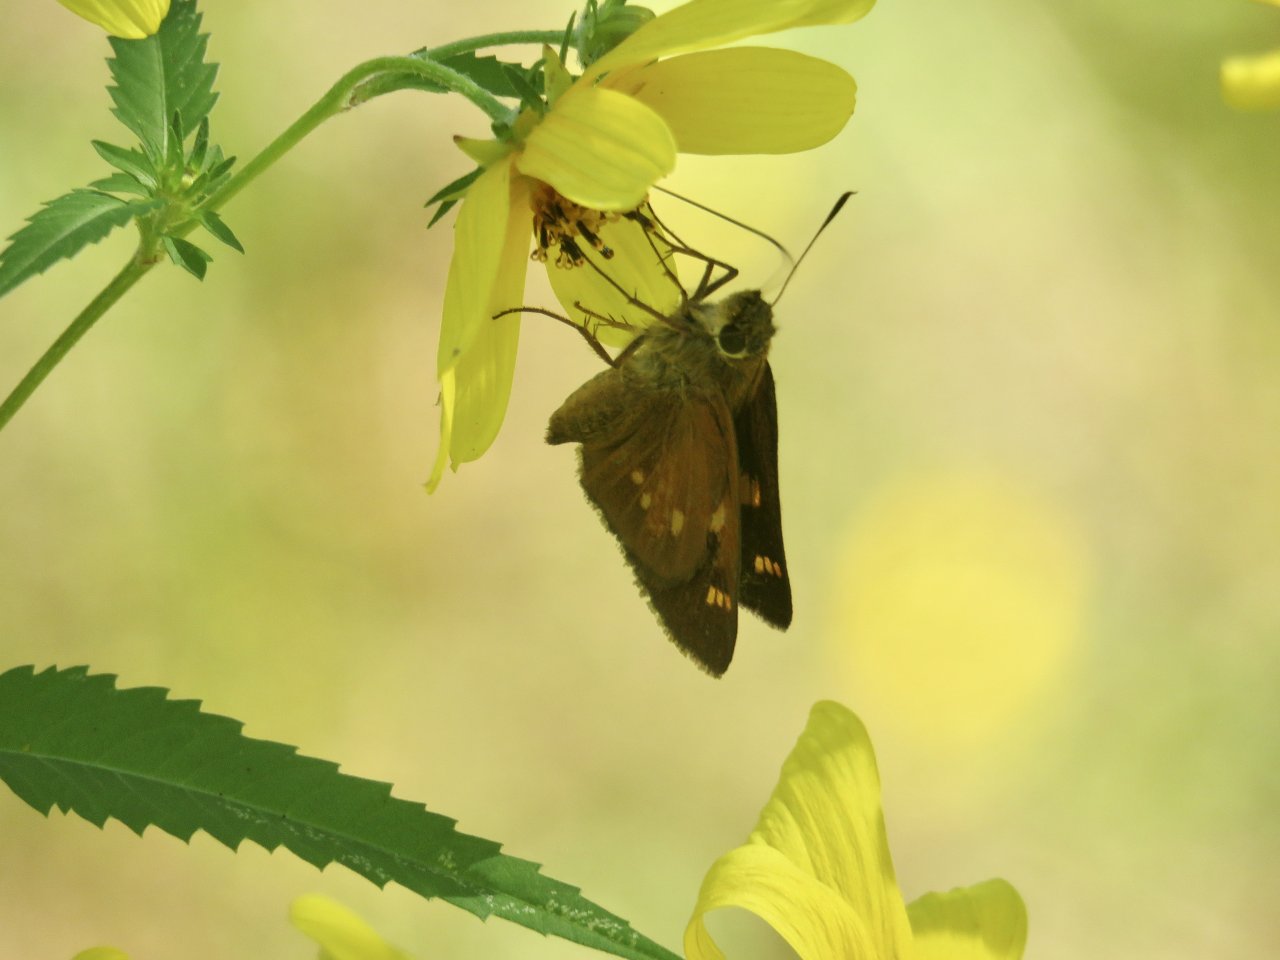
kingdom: Animalia
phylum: Arthropoda
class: Insecta
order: Lepidoptera
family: Hesperiidae
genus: Poanes
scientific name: Poanes yehl
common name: Yehl Skipper
